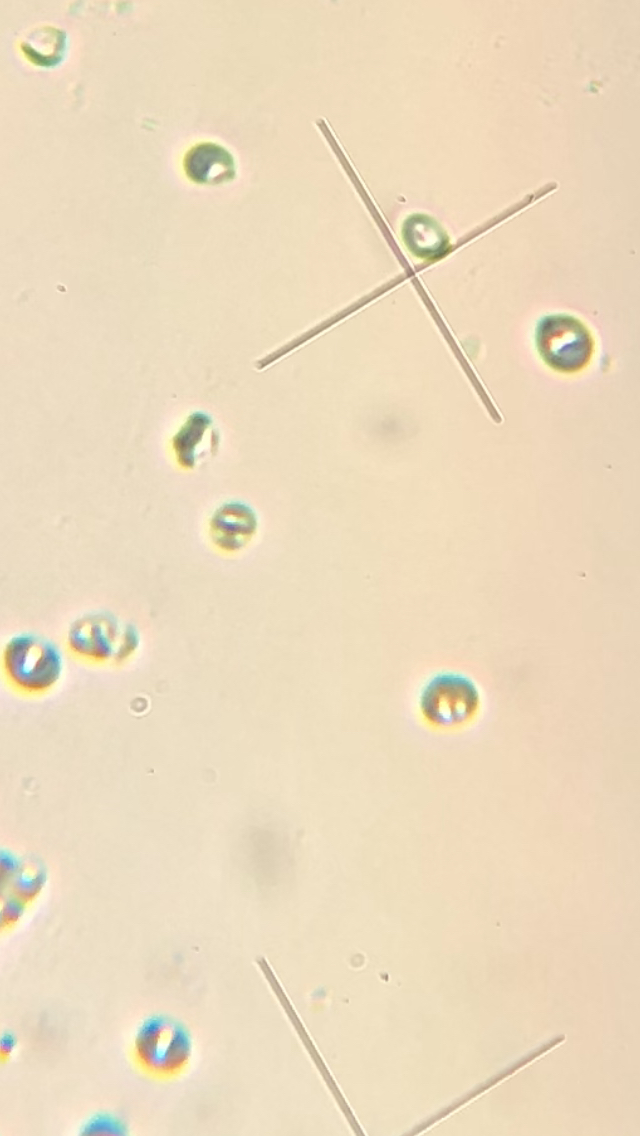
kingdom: Fungi
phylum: Basidiomycota
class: Agaricomycetes
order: Polyporales
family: Steccherinaceae
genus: Steccherinum
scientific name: Steccherinum ochraceum
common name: almindelig skønpig
